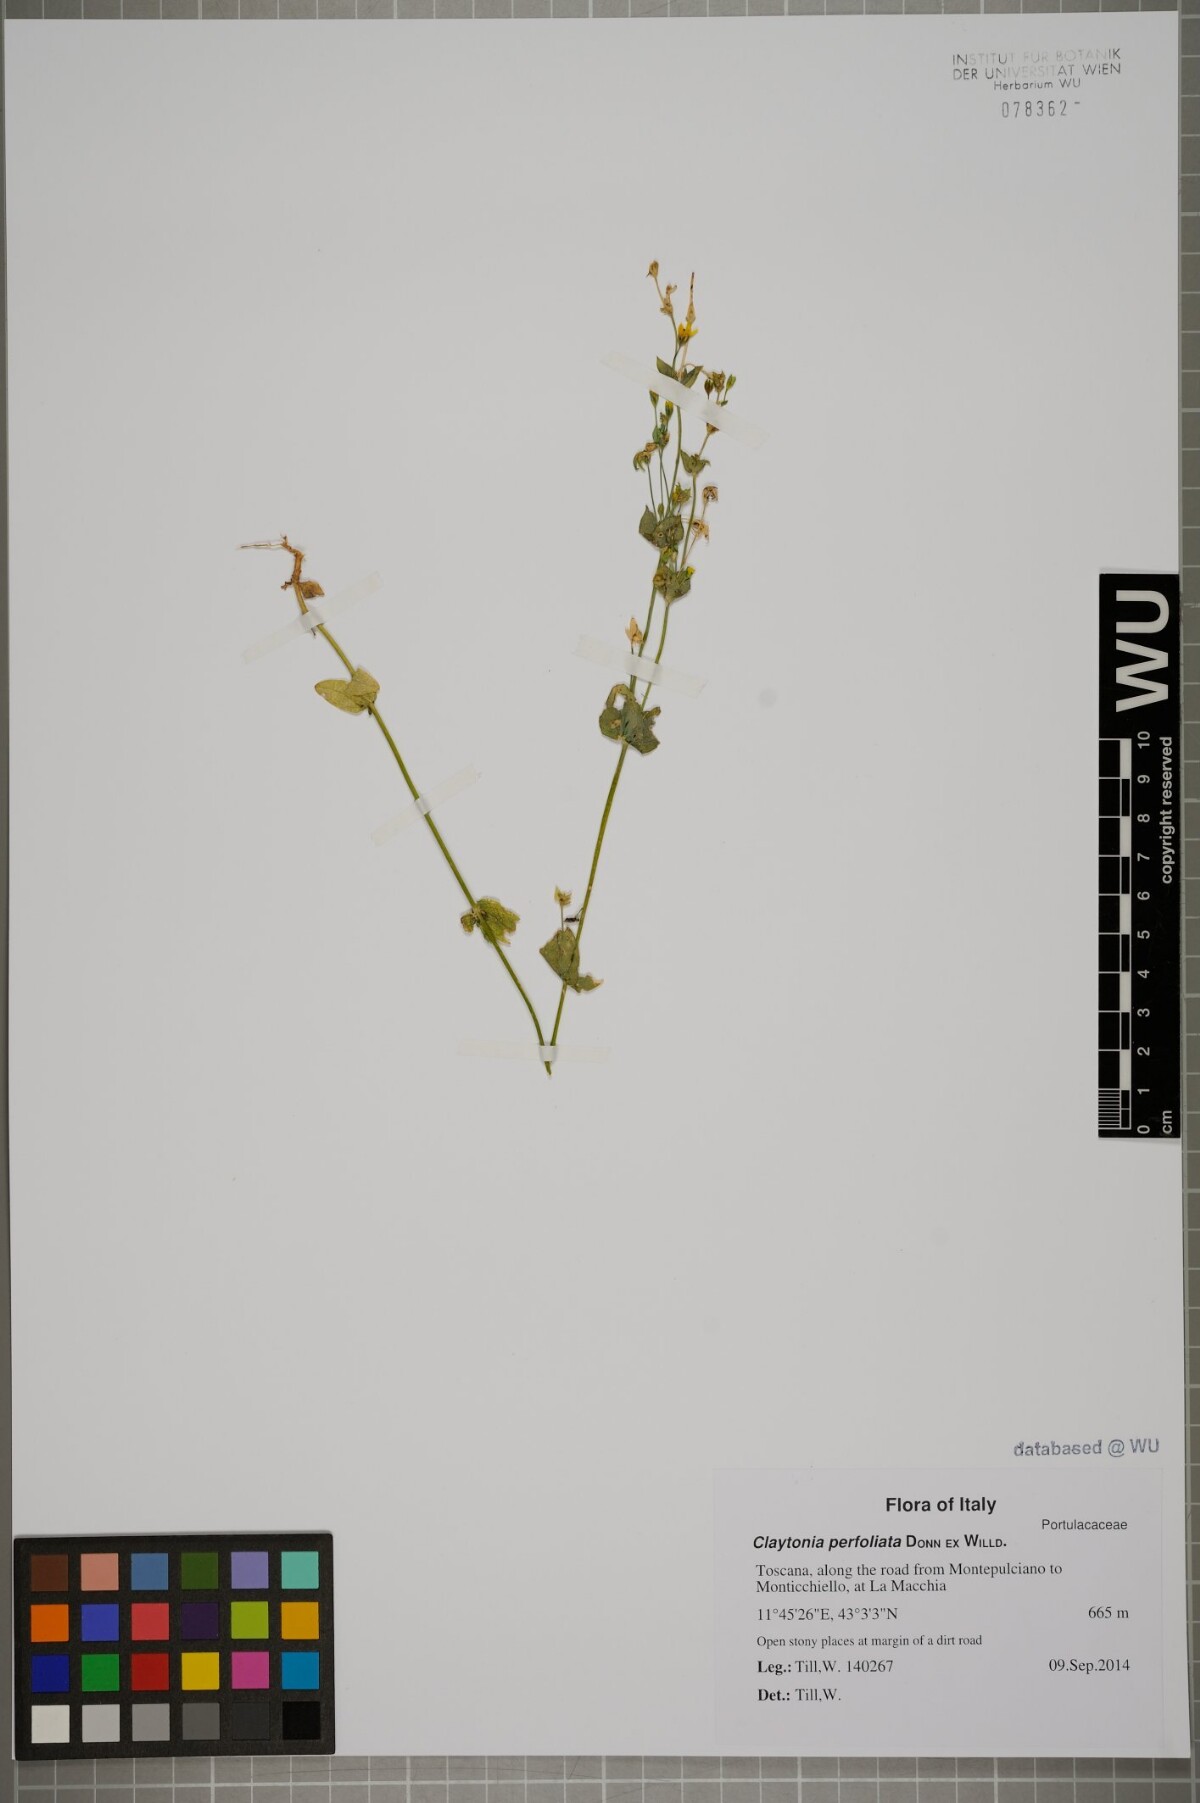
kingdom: Plantae
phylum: Tracheophyta
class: Magnoliopsida
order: Caryophyllales
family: Montiaceae
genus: Claytonia
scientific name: Claytonia perfoliata
